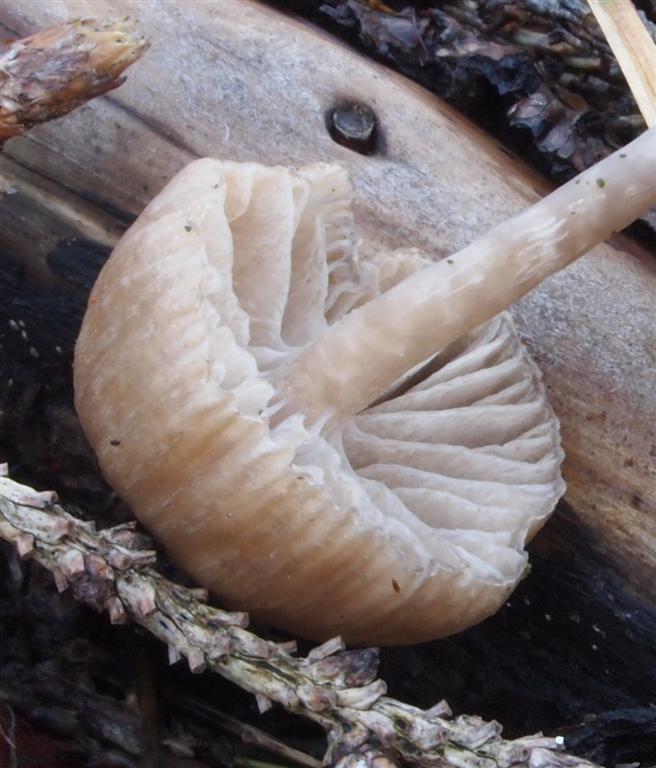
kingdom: Fungi
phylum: Basidiomycota
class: Agaricomycetes
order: Agaricales
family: Tricholomataceae
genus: Gamundia
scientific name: Gamundia striatula
